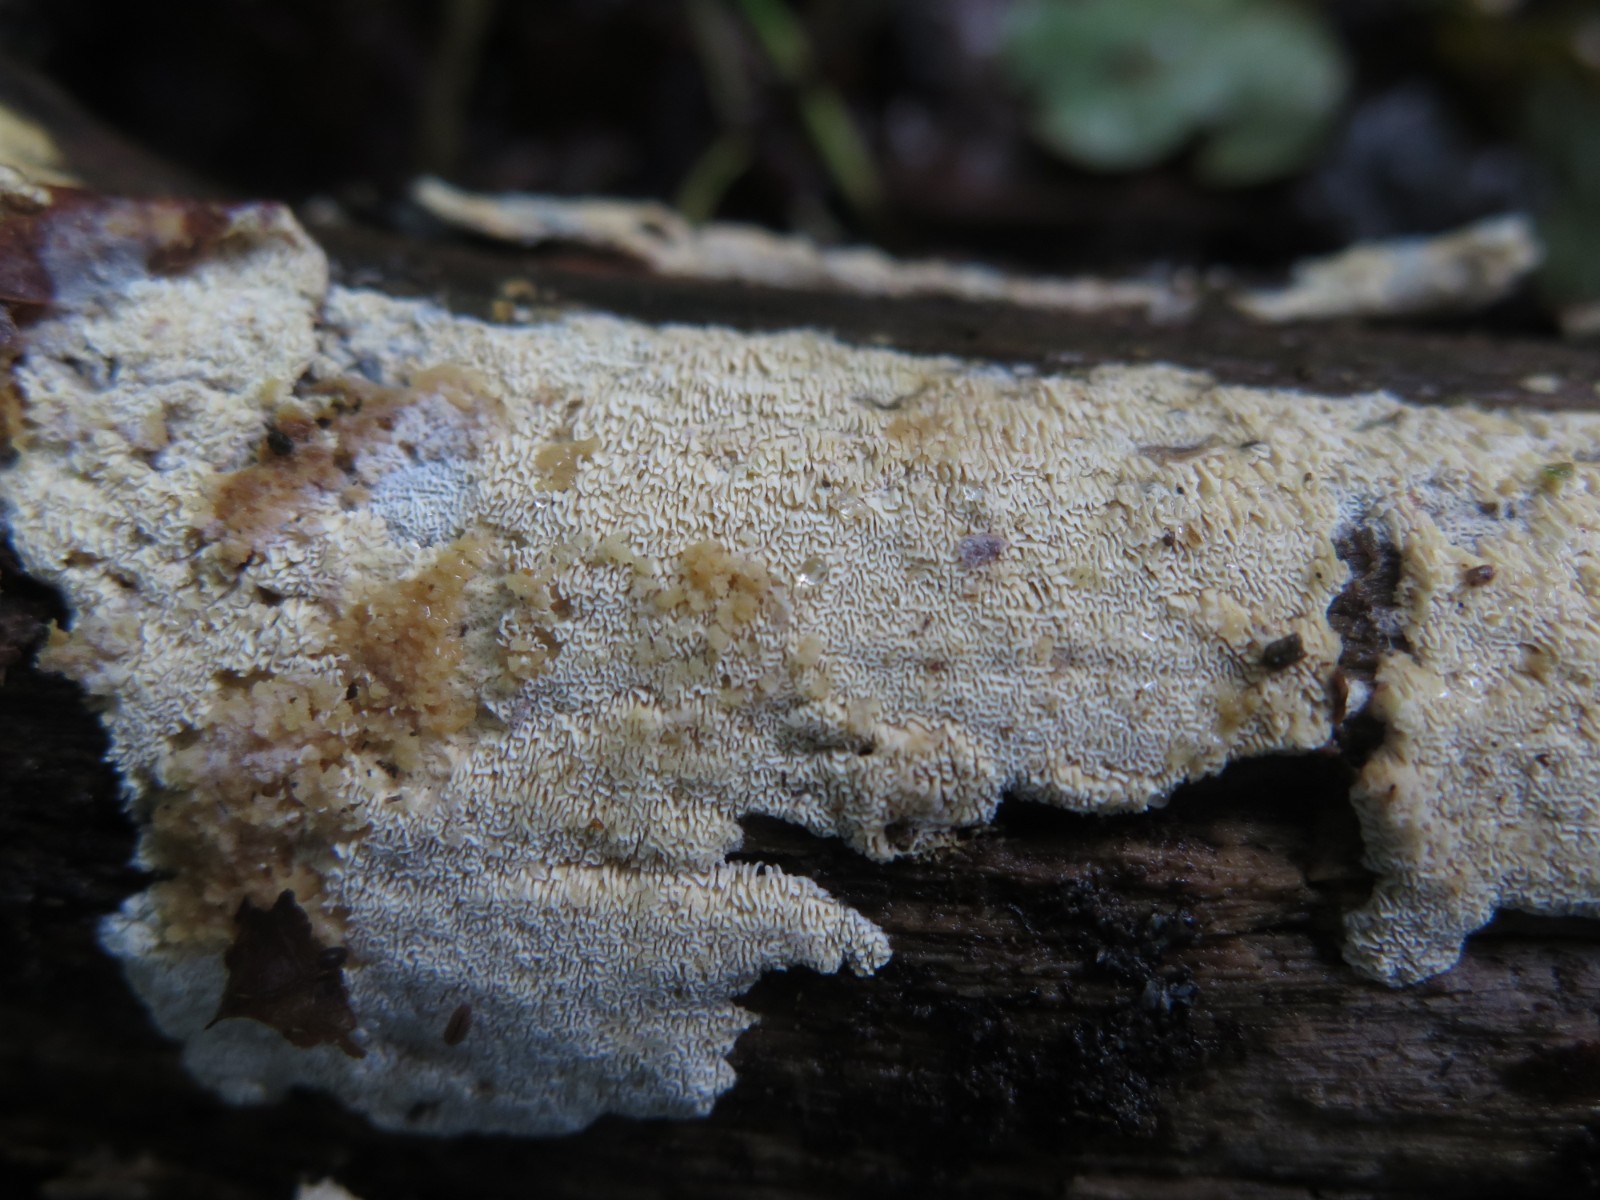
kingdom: Fungi
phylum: Basidiomycota
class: Agaricomycetes
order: Hymenochaetales
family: Schizoporaceae
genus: Xylodon
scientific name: Xylodon subtropicus
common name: labyrint-tandsvamp
